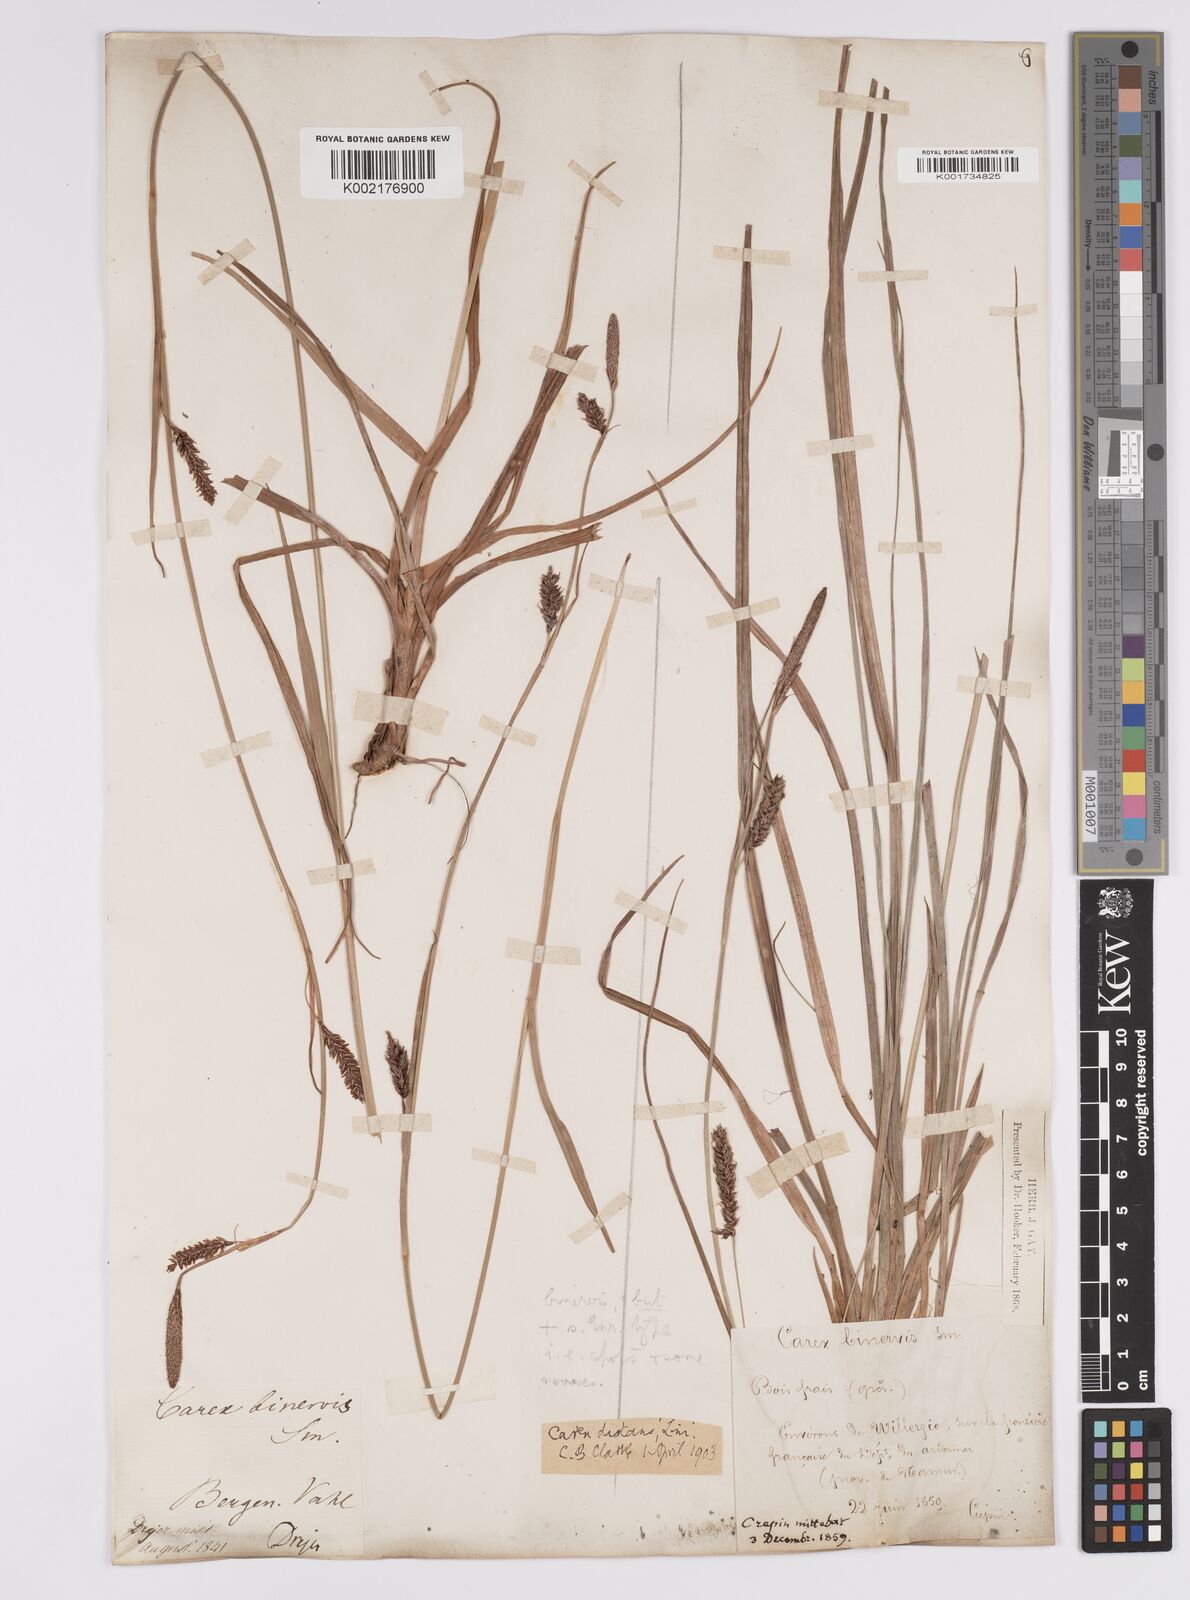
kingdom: Plantae
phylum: Tracheophyta
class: Liliopsida
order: Poales
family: Cyperaceae
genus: Carex
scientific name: Carex binervis
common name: Green-ribbed sedge
